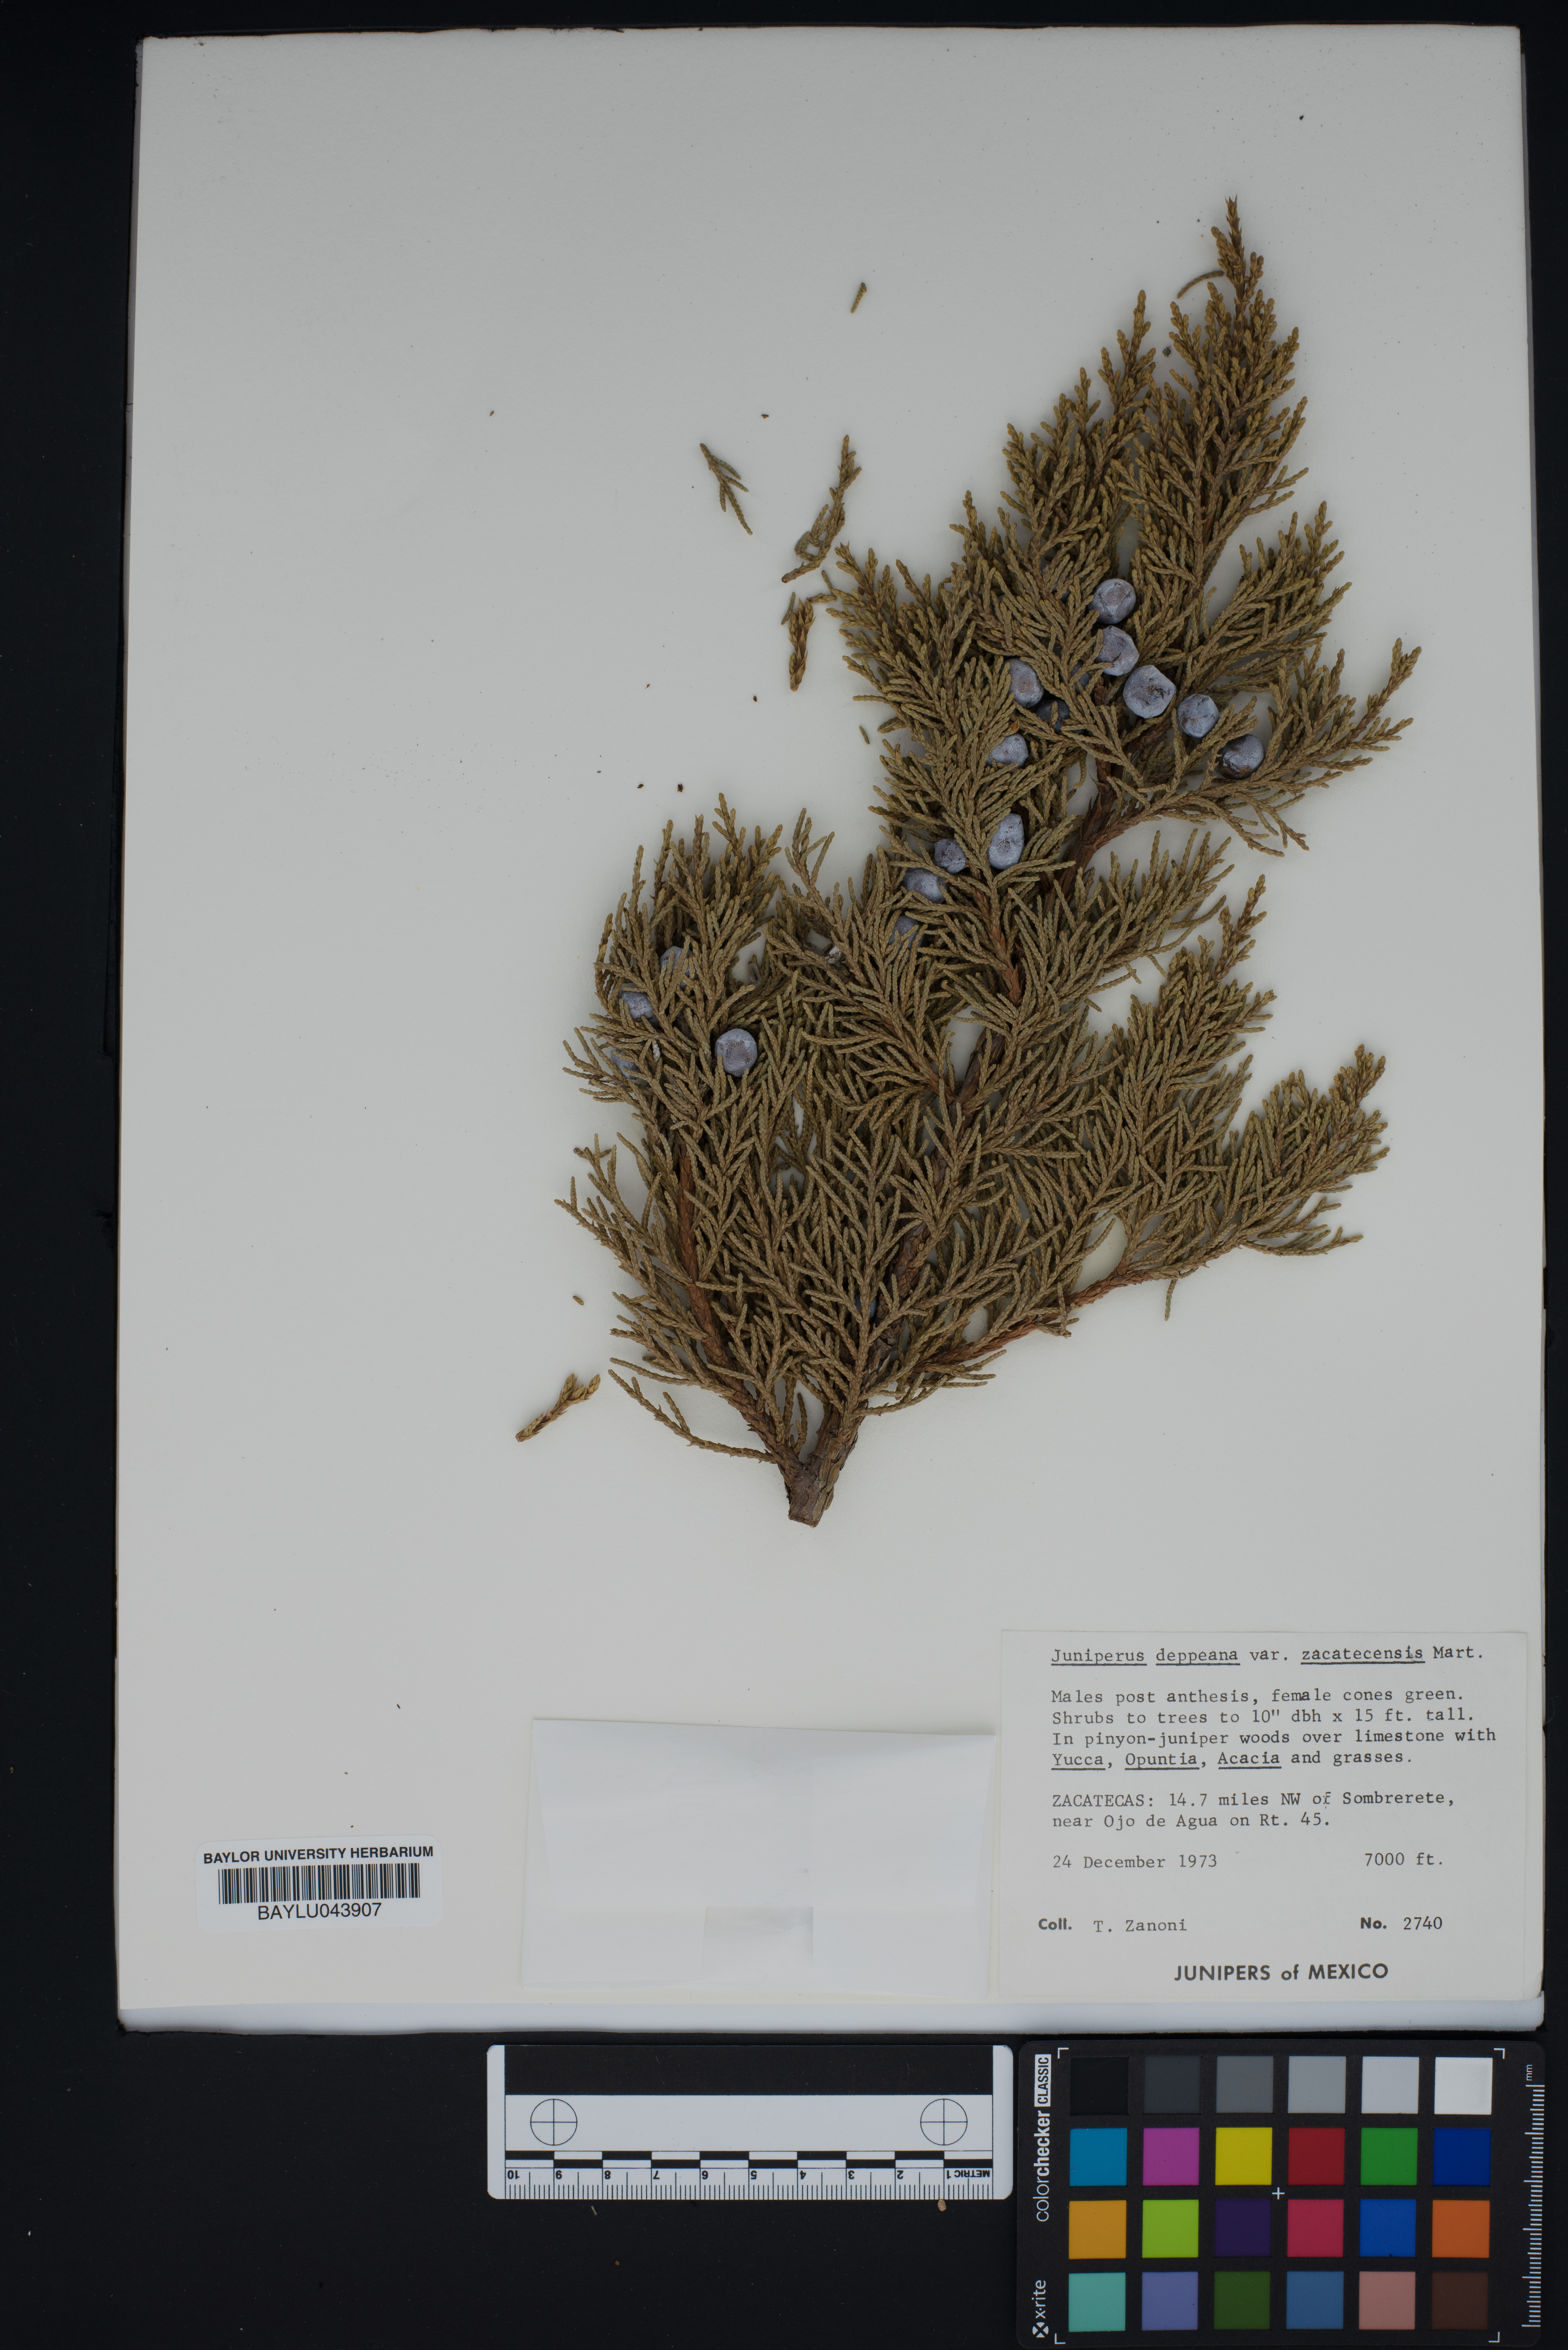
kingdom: Plantae
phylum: Tracheophyta
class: Pinopsida
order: Pinales
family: Cupressaceae
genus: Juniperus
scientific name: Juniperus deppeana
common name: Alligator juniper
